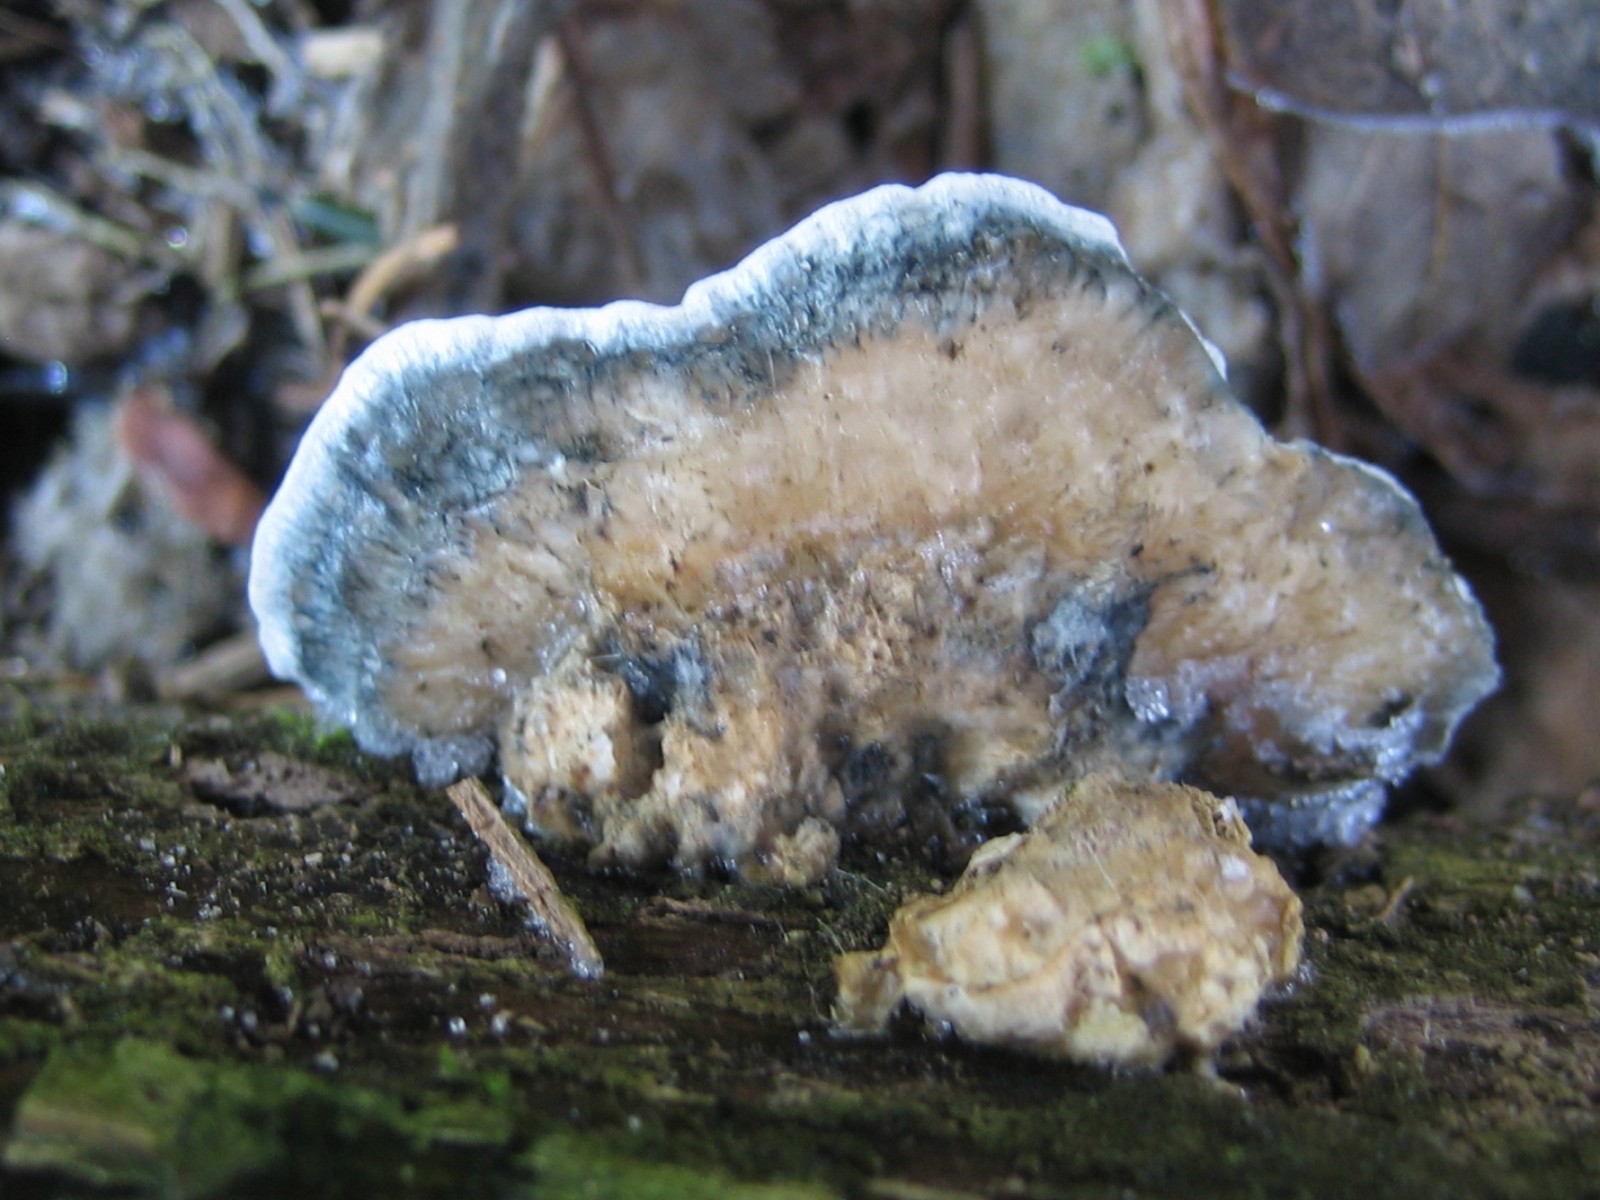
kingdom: Fungi
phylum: Basidiomycota
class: Agaricomycetes
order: Polyporales
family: Polyporaceae
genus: Cyanosporus
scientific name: Cyanosporus caesius
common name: blålig kødporesvamp
